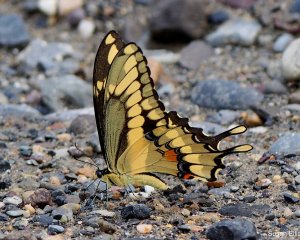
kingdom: Animalia
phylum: Arthropoda
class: Insecta
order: Lepidoptera
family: Papilionidae
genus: Papilio
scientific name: Papilio cresphontes
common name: Eastern Giant Swallowtail
